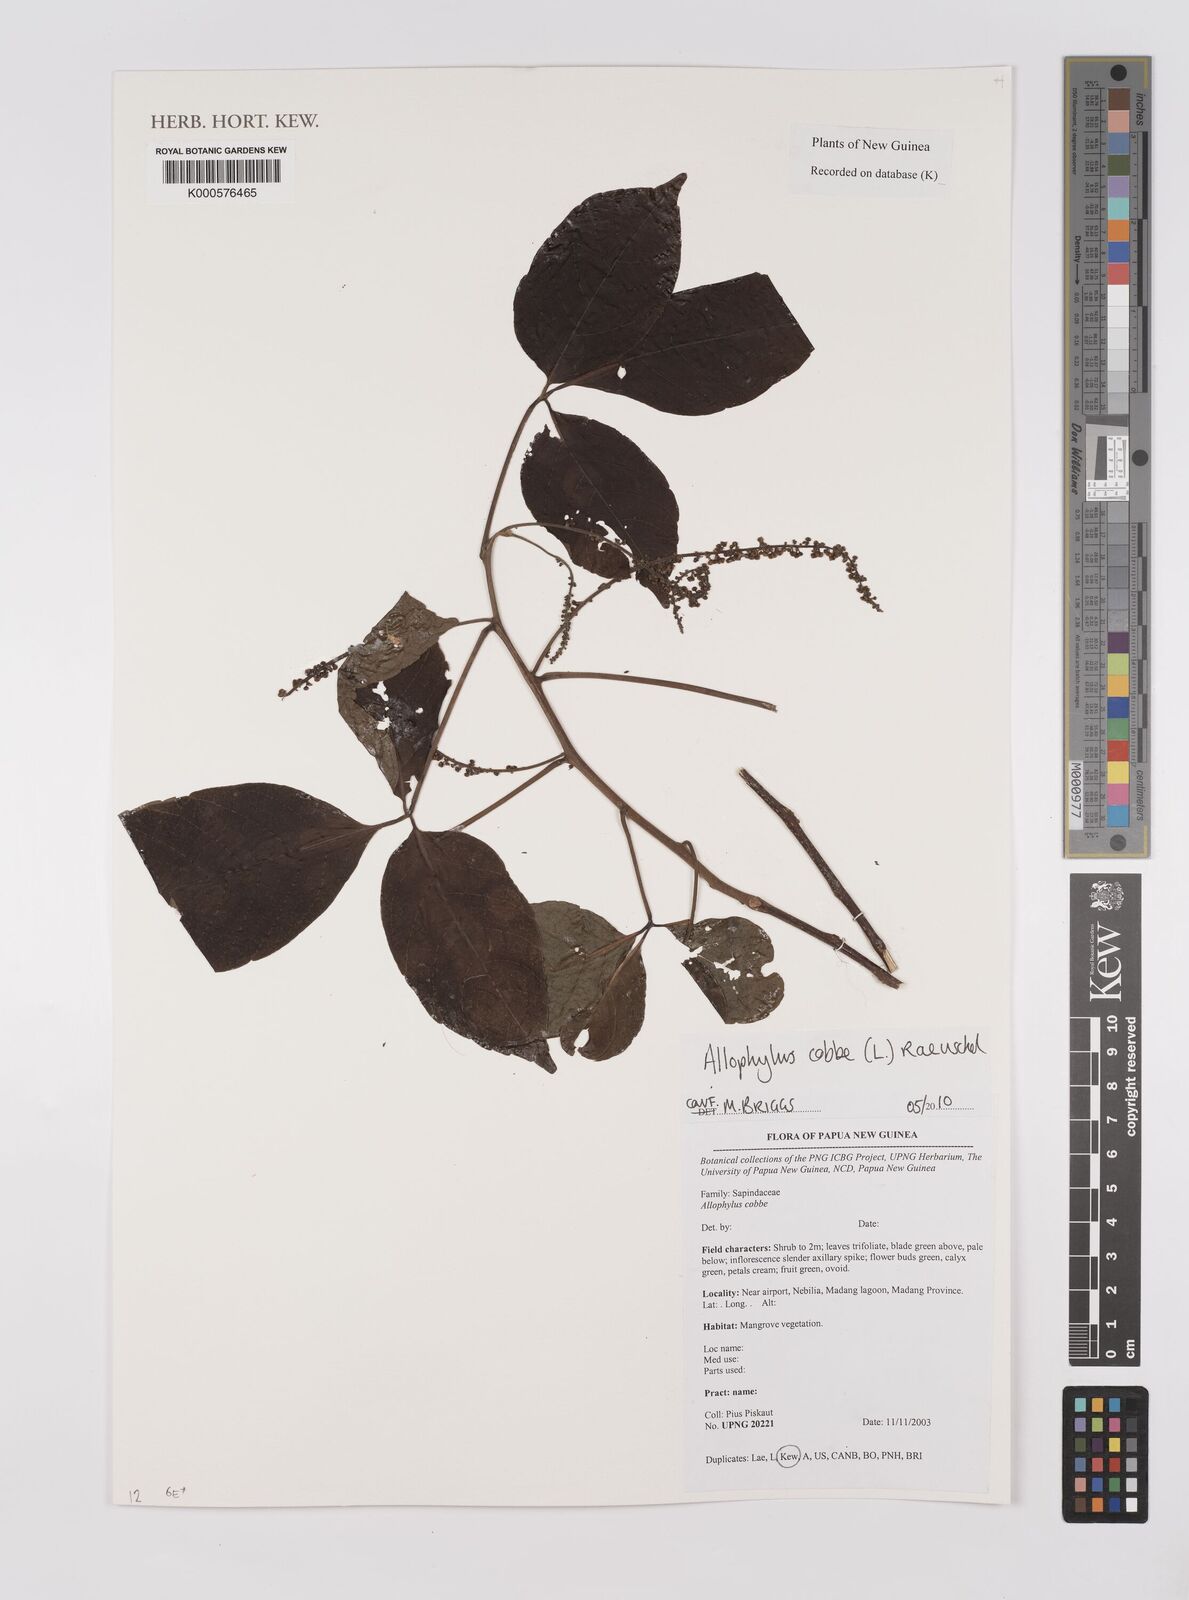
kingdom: Plantae
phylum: Tracheophyta
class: Magnoliopsida
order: Sapindales
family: Sapindaceae
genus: Allophylus
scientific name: Allophylus
